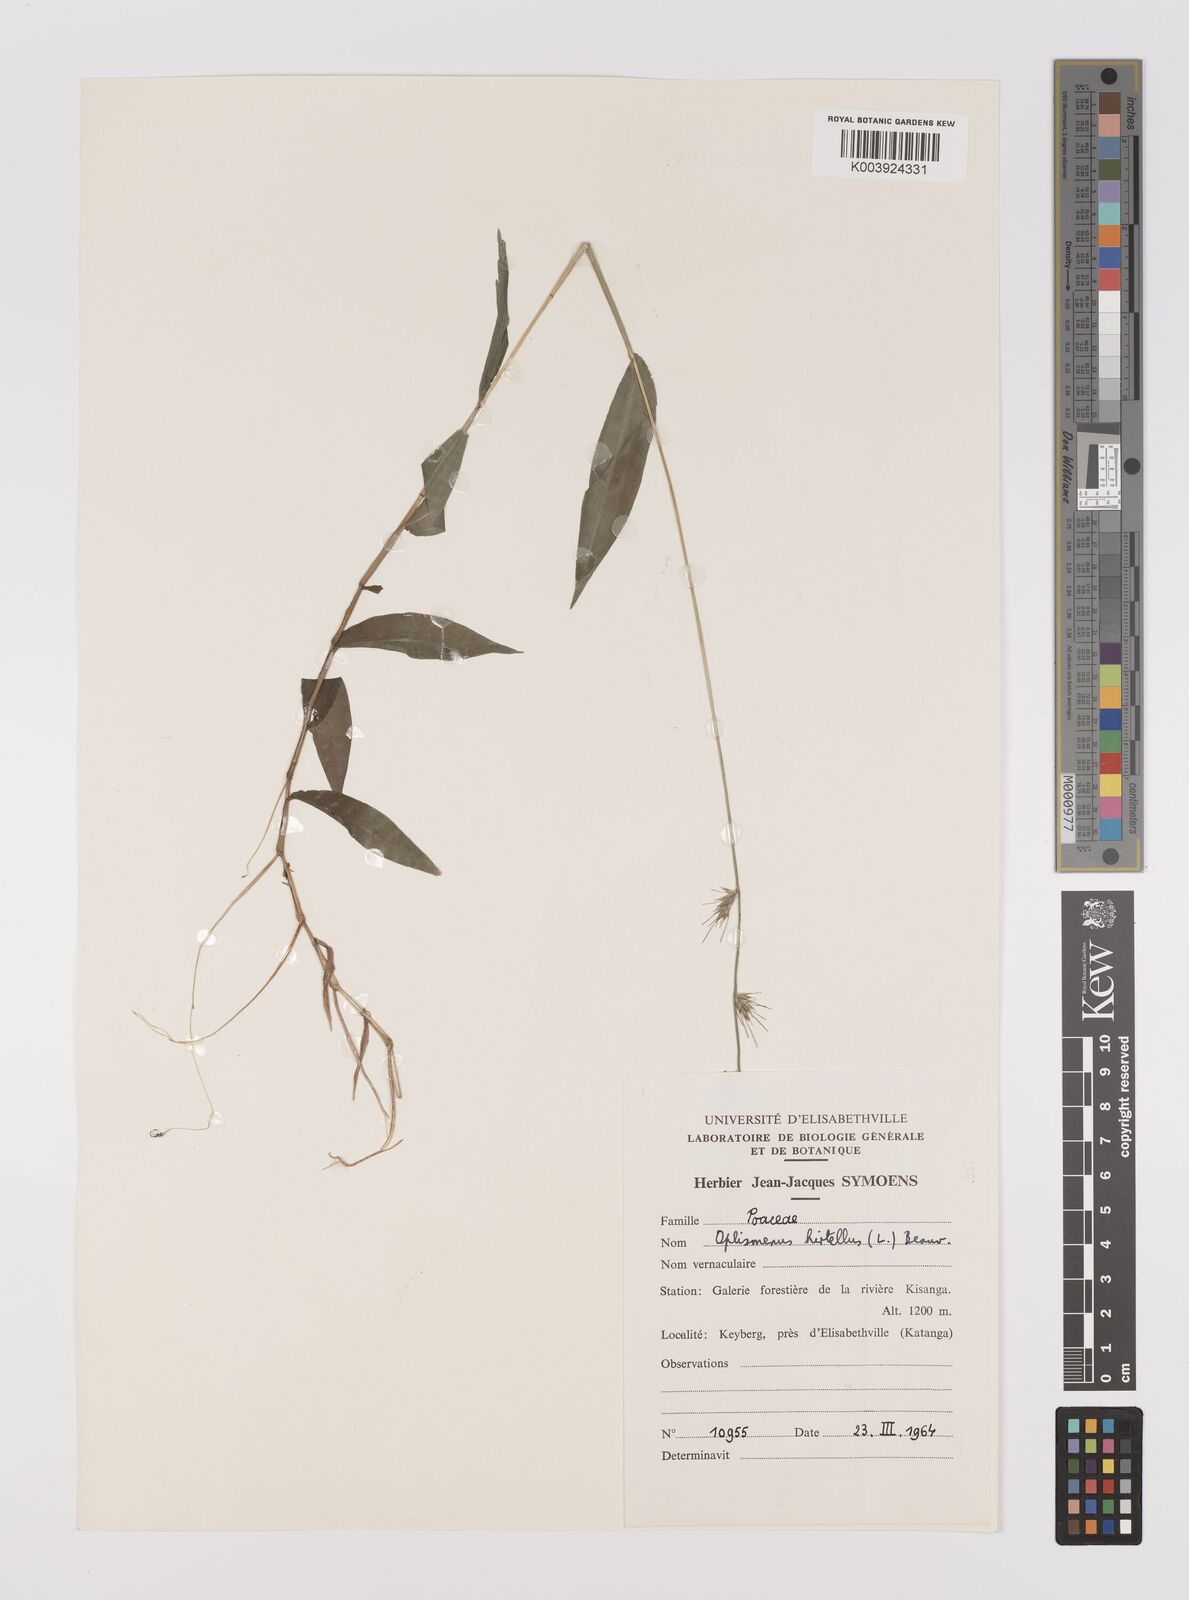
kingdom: Plantae
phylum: Tracheophyta
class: Liliopsida
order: Poales
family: Poaceae
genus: Oplismenus
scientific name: Oplismenus hirtellus
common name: Basketgrass
